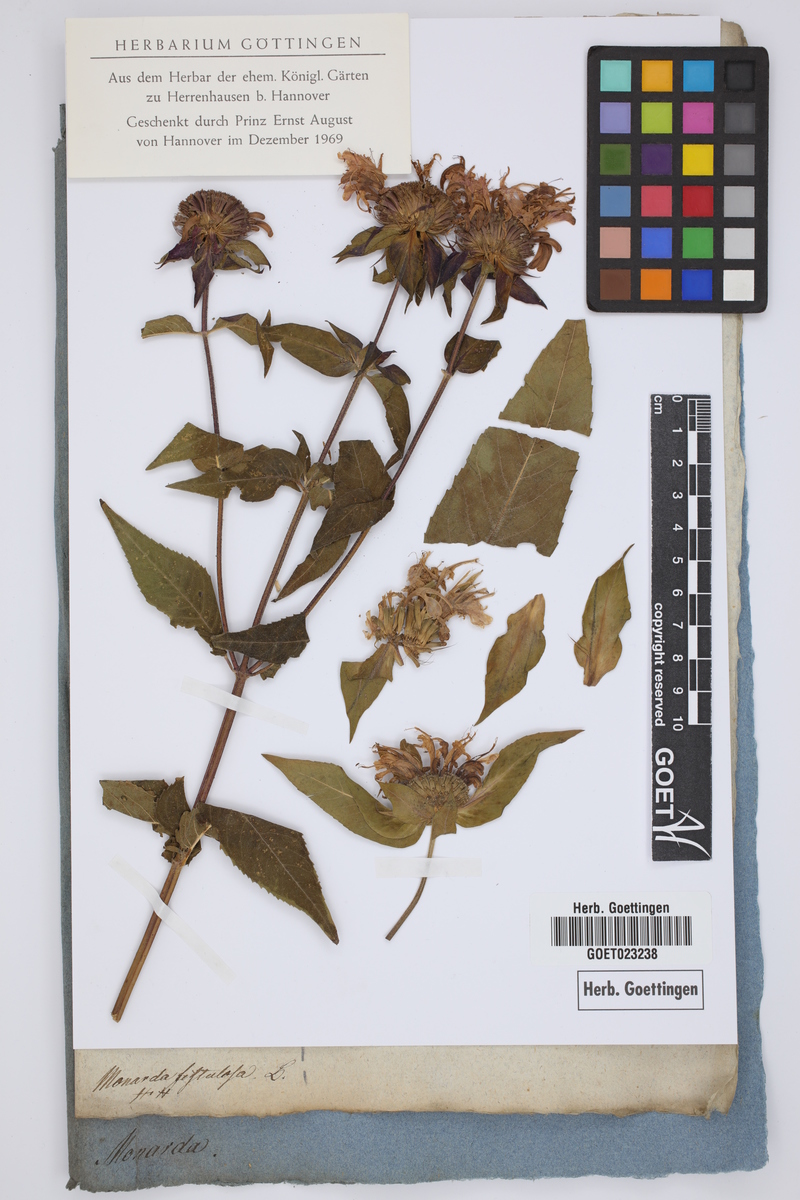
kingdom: Plantae
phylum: Tracheophyta
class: Magnoliopsida
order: Lamiales
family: Lamiaceae
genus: Monarda
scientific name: Monarda fistulosa
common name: Purple beebalm
